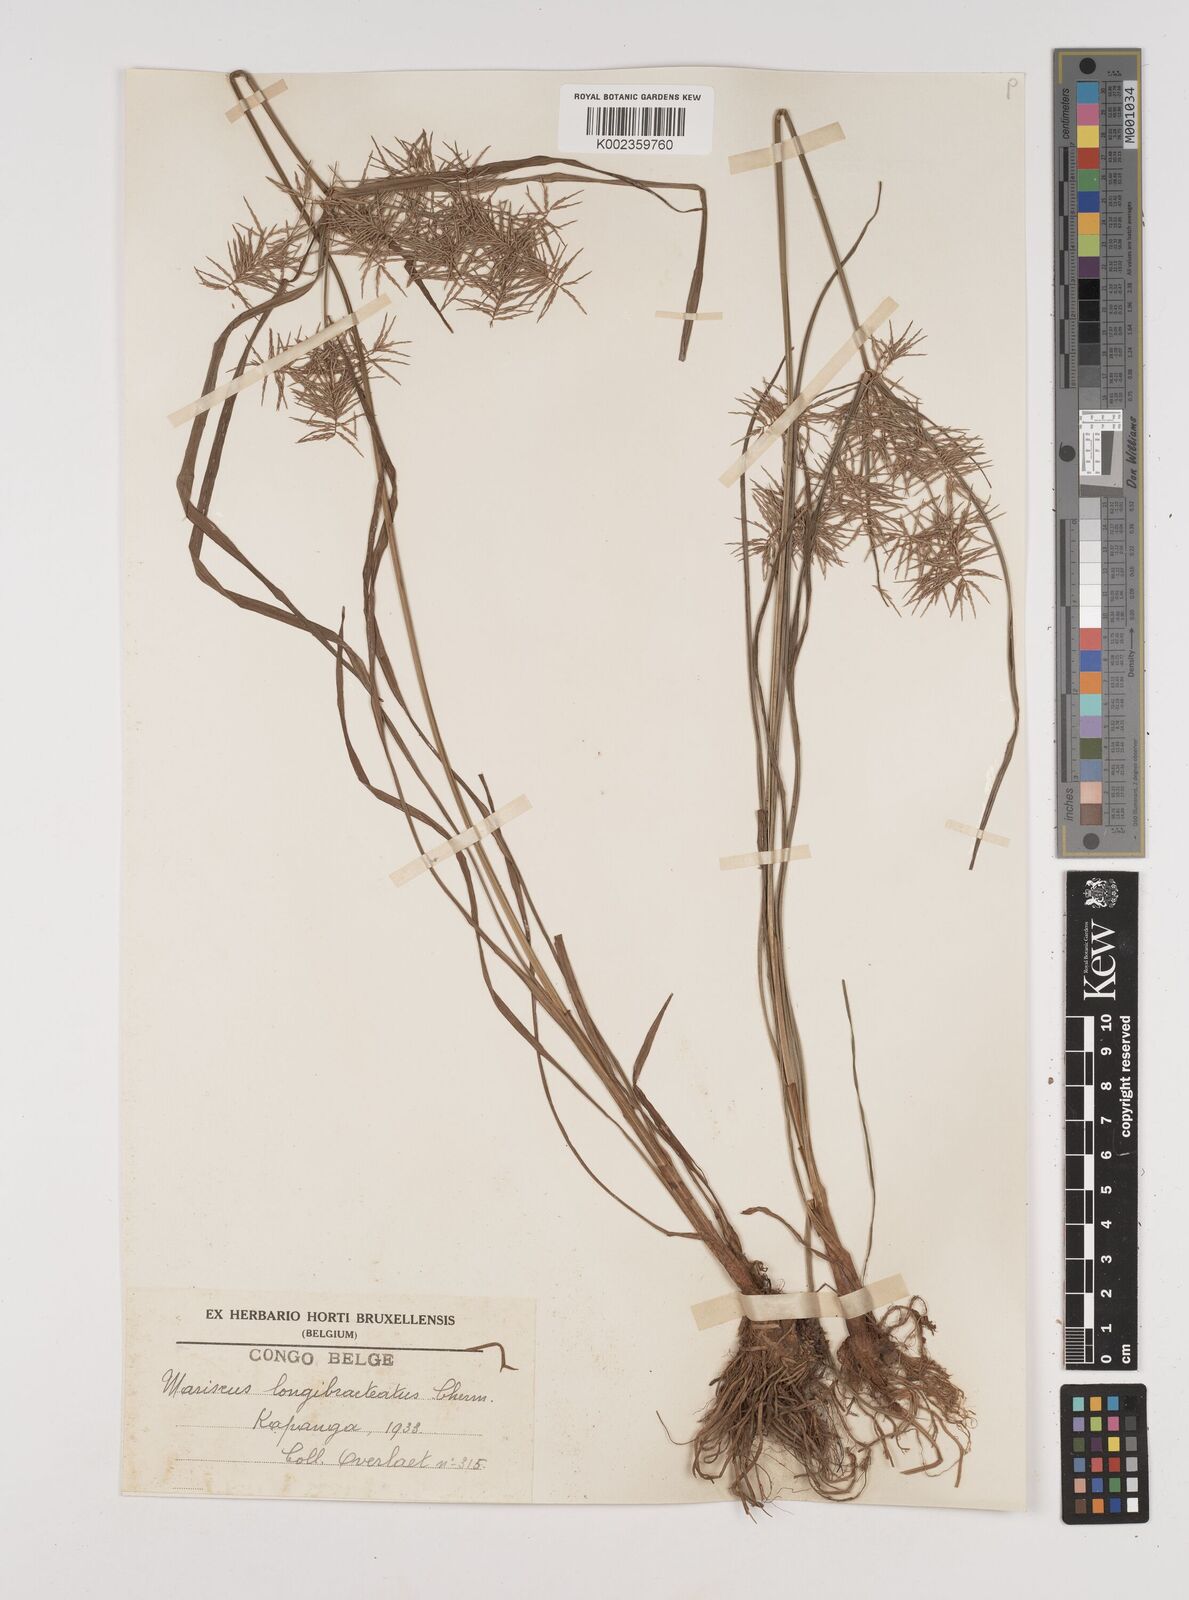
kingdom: Plantae
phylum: Tracheophyta
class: Liliopsida
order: Poales
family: Cyperaceae
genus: Cyperus
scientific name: Cyperus distans
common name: Slender cyperus
